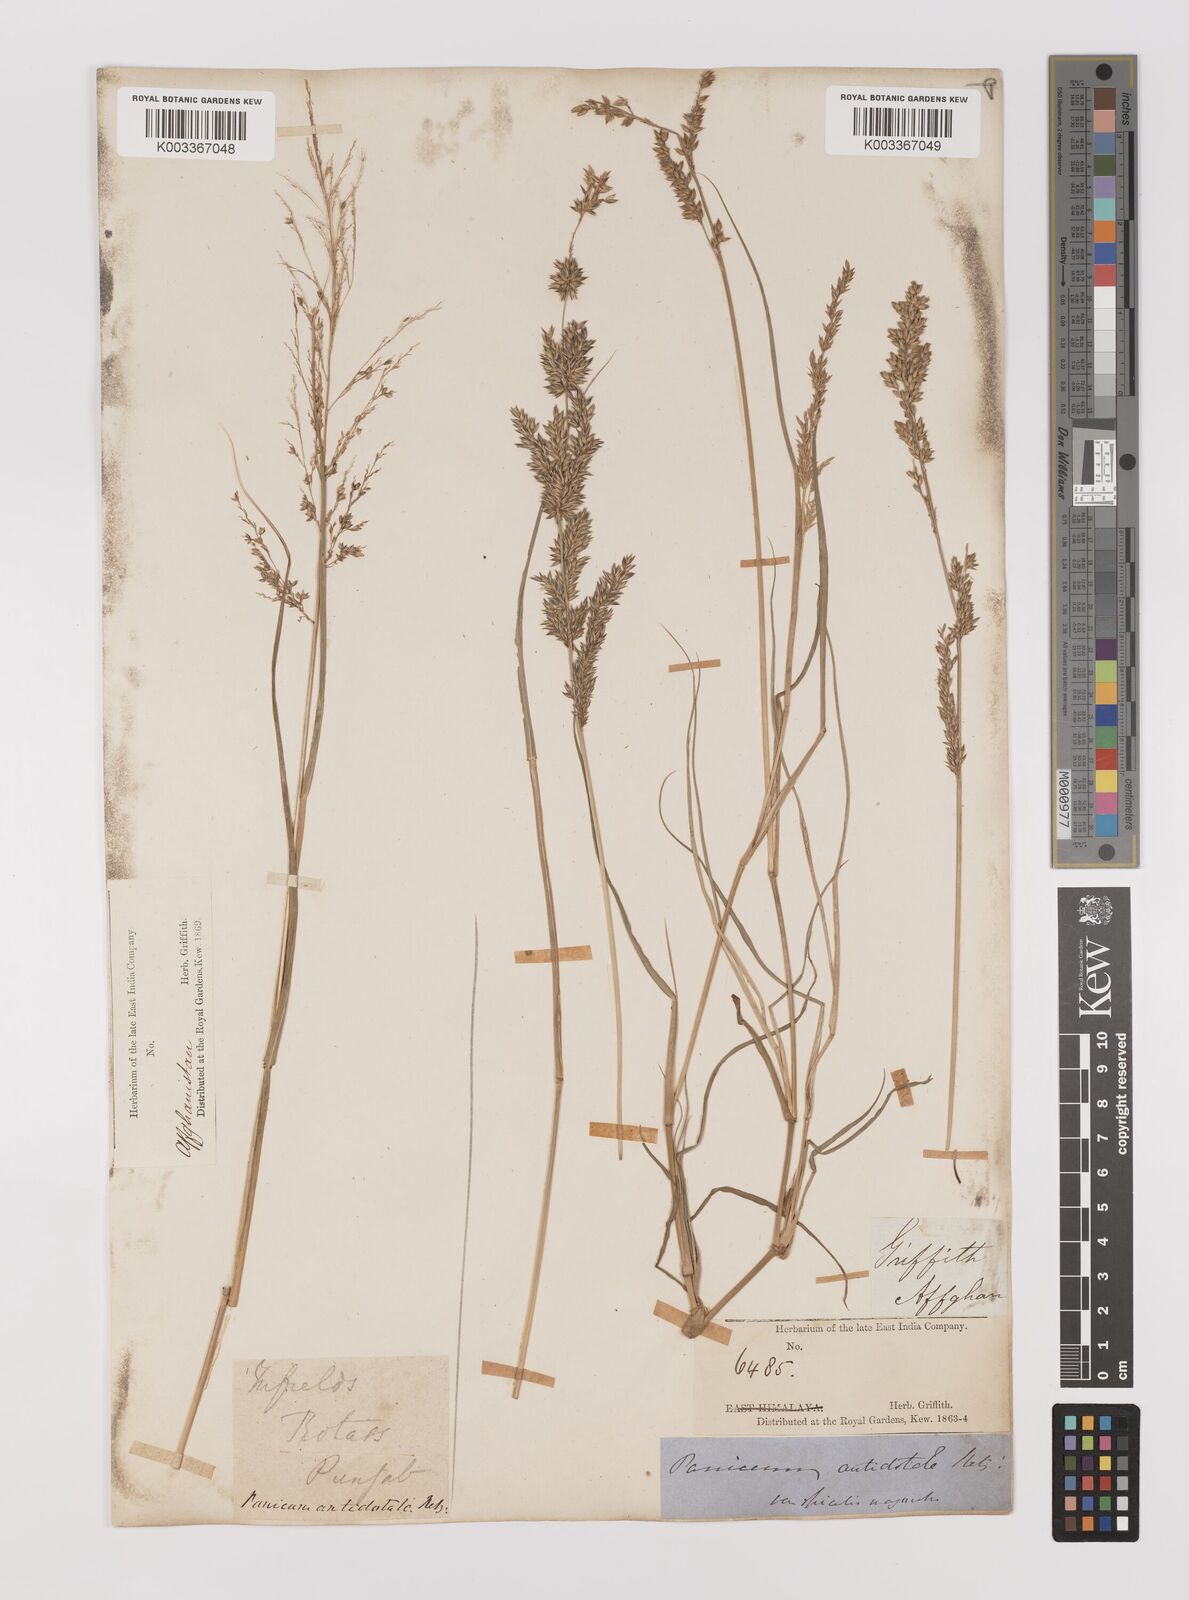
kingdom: Plantae
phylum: Tracheophyta
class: Liliopsida
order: Poales
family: Poaceae
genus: Panicum
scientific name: Panicum antidotale
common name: Blue panicum
